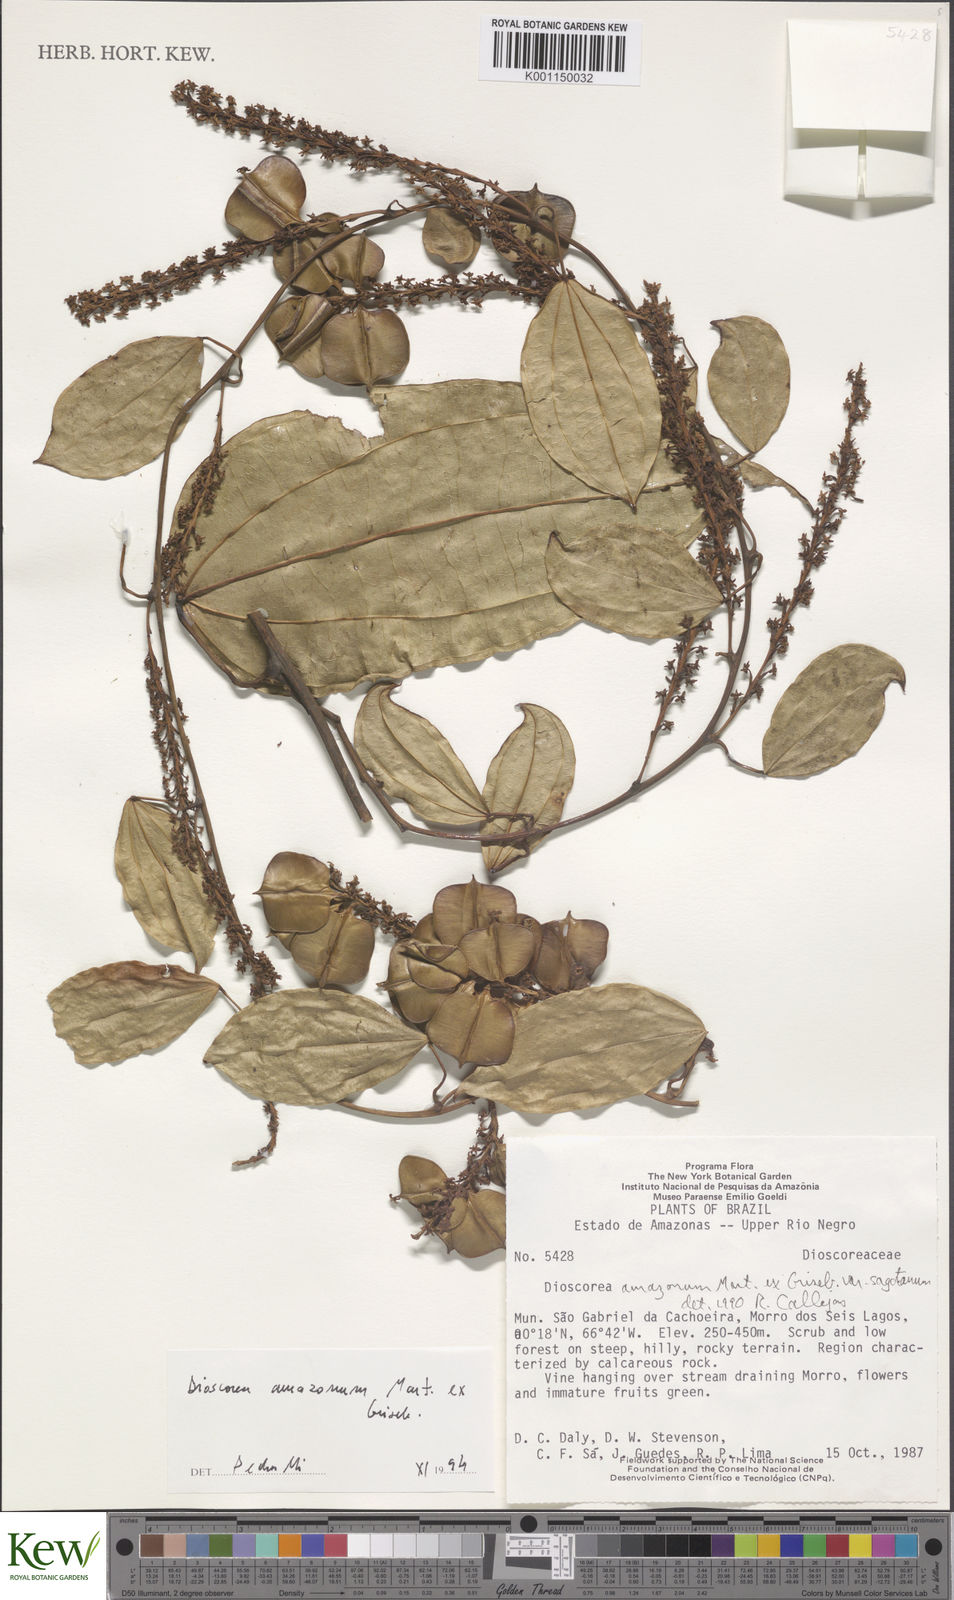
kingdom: Plantae
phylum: Tracheophyta
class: Liliopsida
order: Dioscoreales
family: Dioscoreaceae
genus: Dioscorea
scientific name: Dioscorea amazonum
